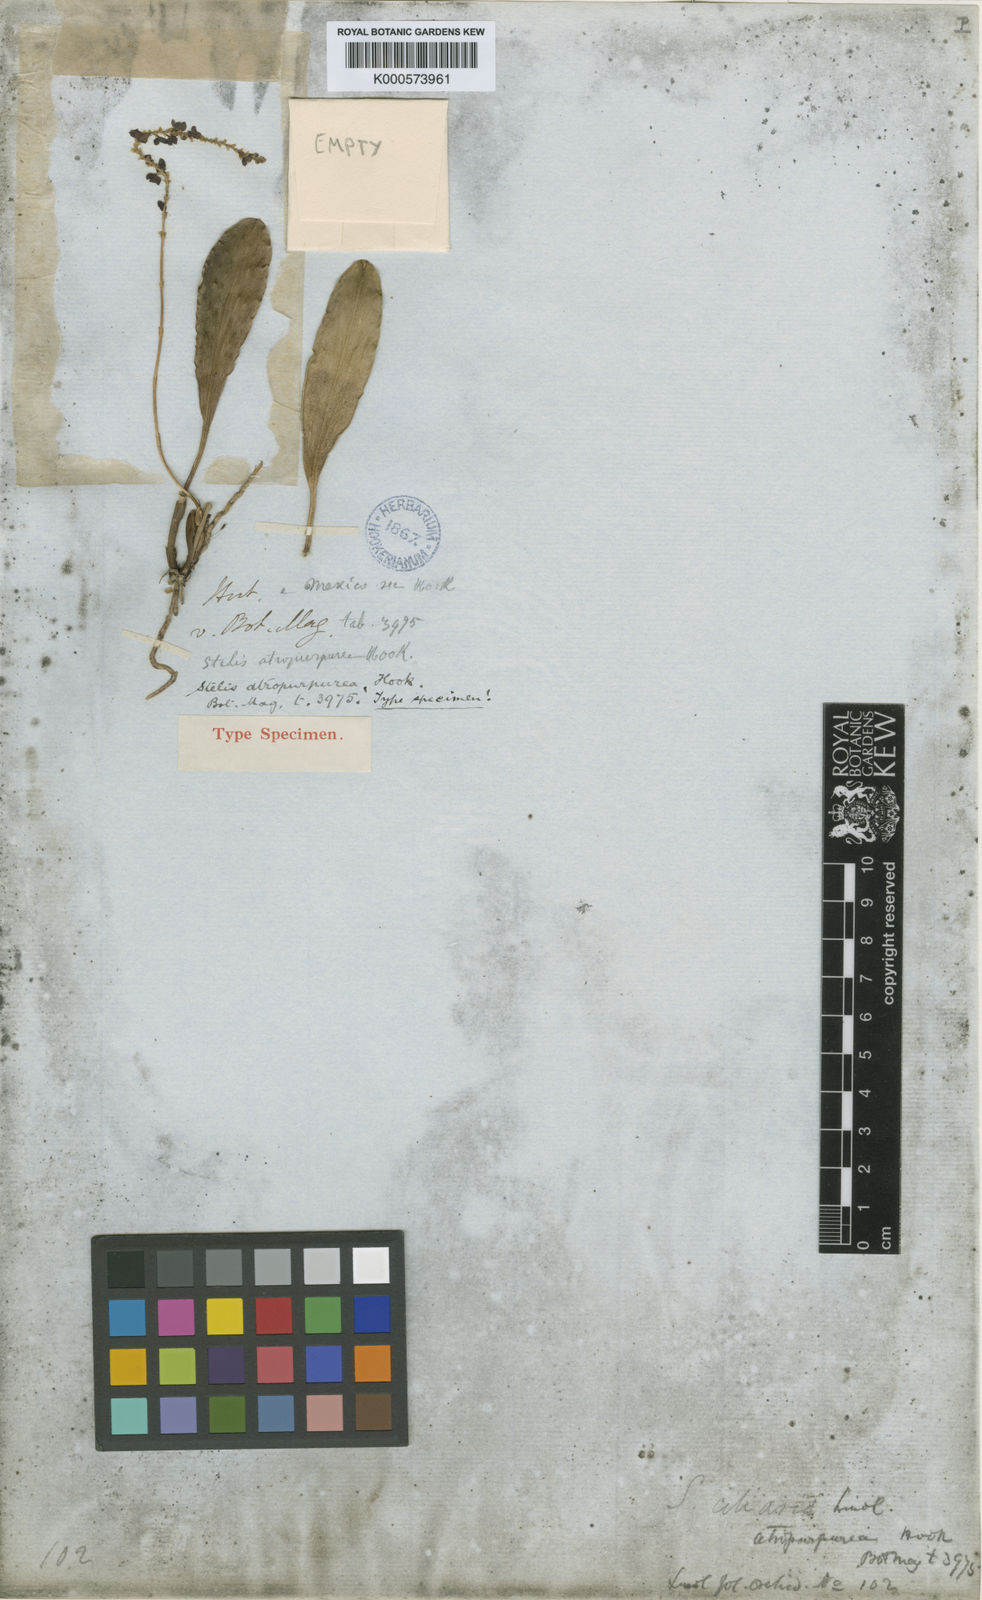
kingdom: Plantae
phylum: Tracheophyta
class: Liliopsida
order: Asparagales
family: Orchidaceae
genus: Stelis
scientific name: Stelis ciliaris
